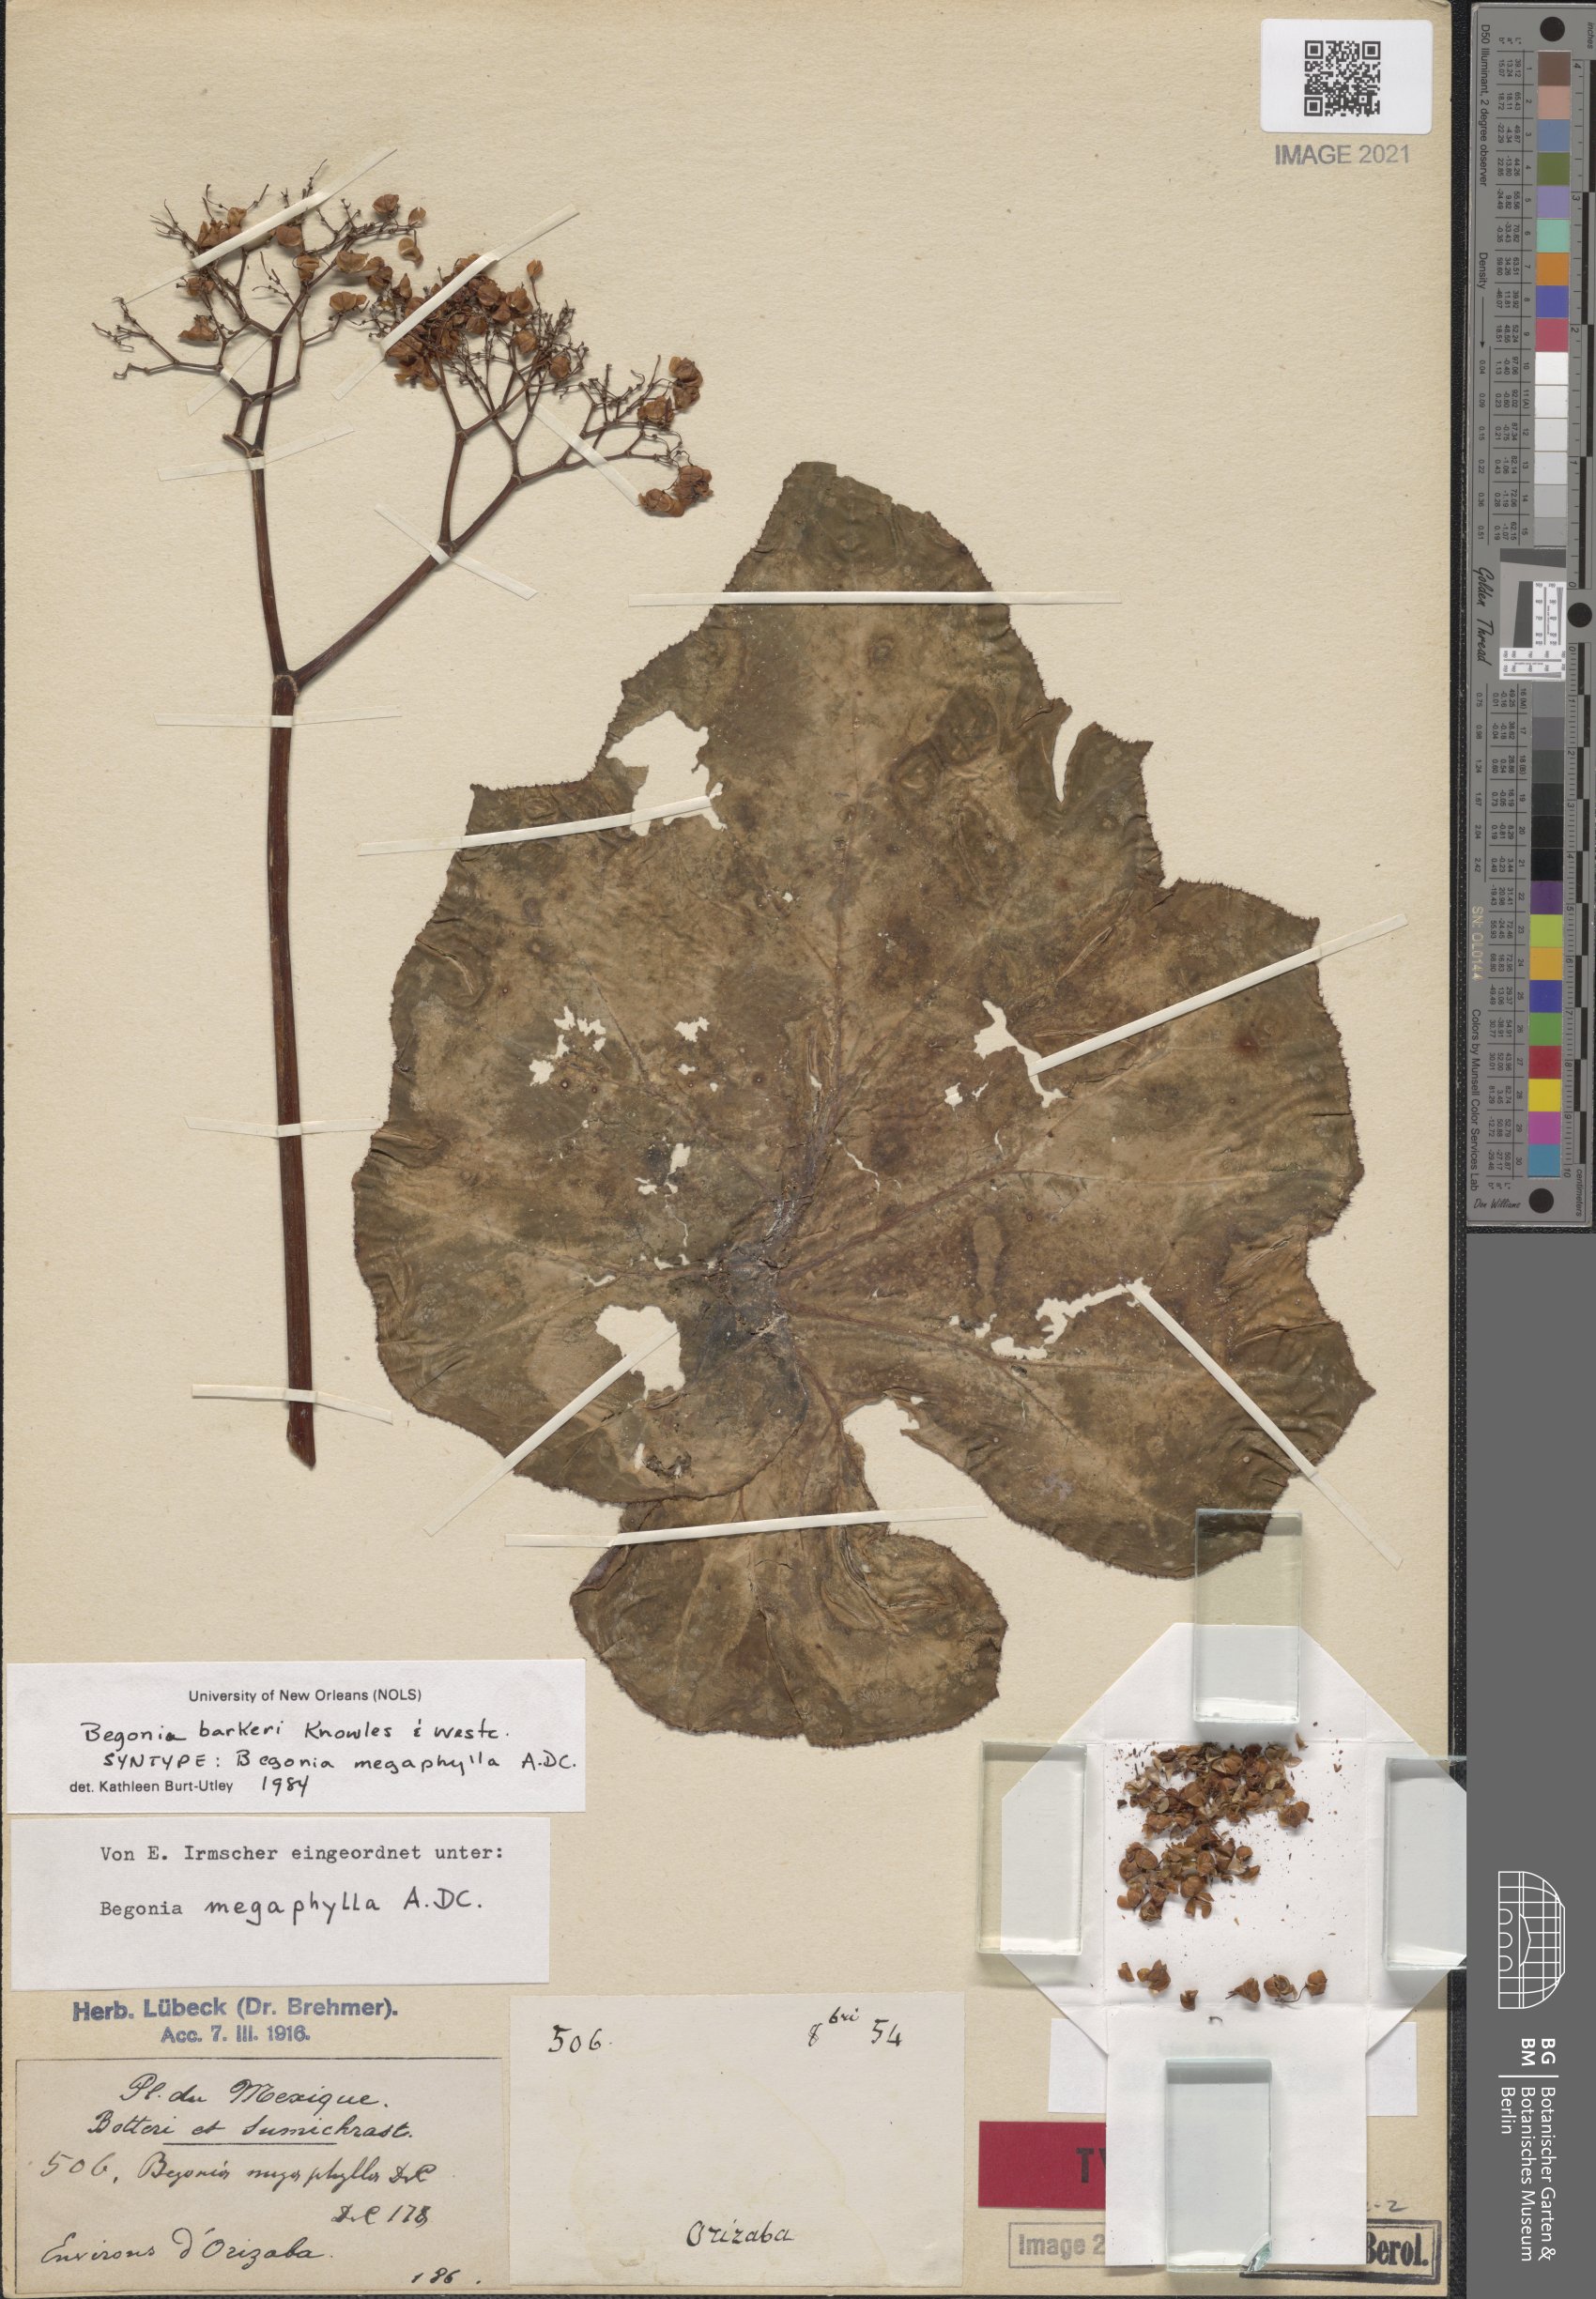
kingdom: Plantae
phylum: Tracheophyta
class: Magnoliopsida
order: Cucurbitales
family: Begoniaceae
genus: Begonia
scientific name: Begonia barkeri
